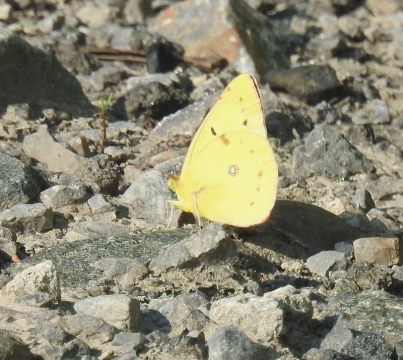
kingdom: Animalia
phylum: Arthropoda
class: Insecta
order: Lepidoptera
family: Pieridae
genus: Colias
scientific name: Colias eurytheme
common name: Orange Sulphur
